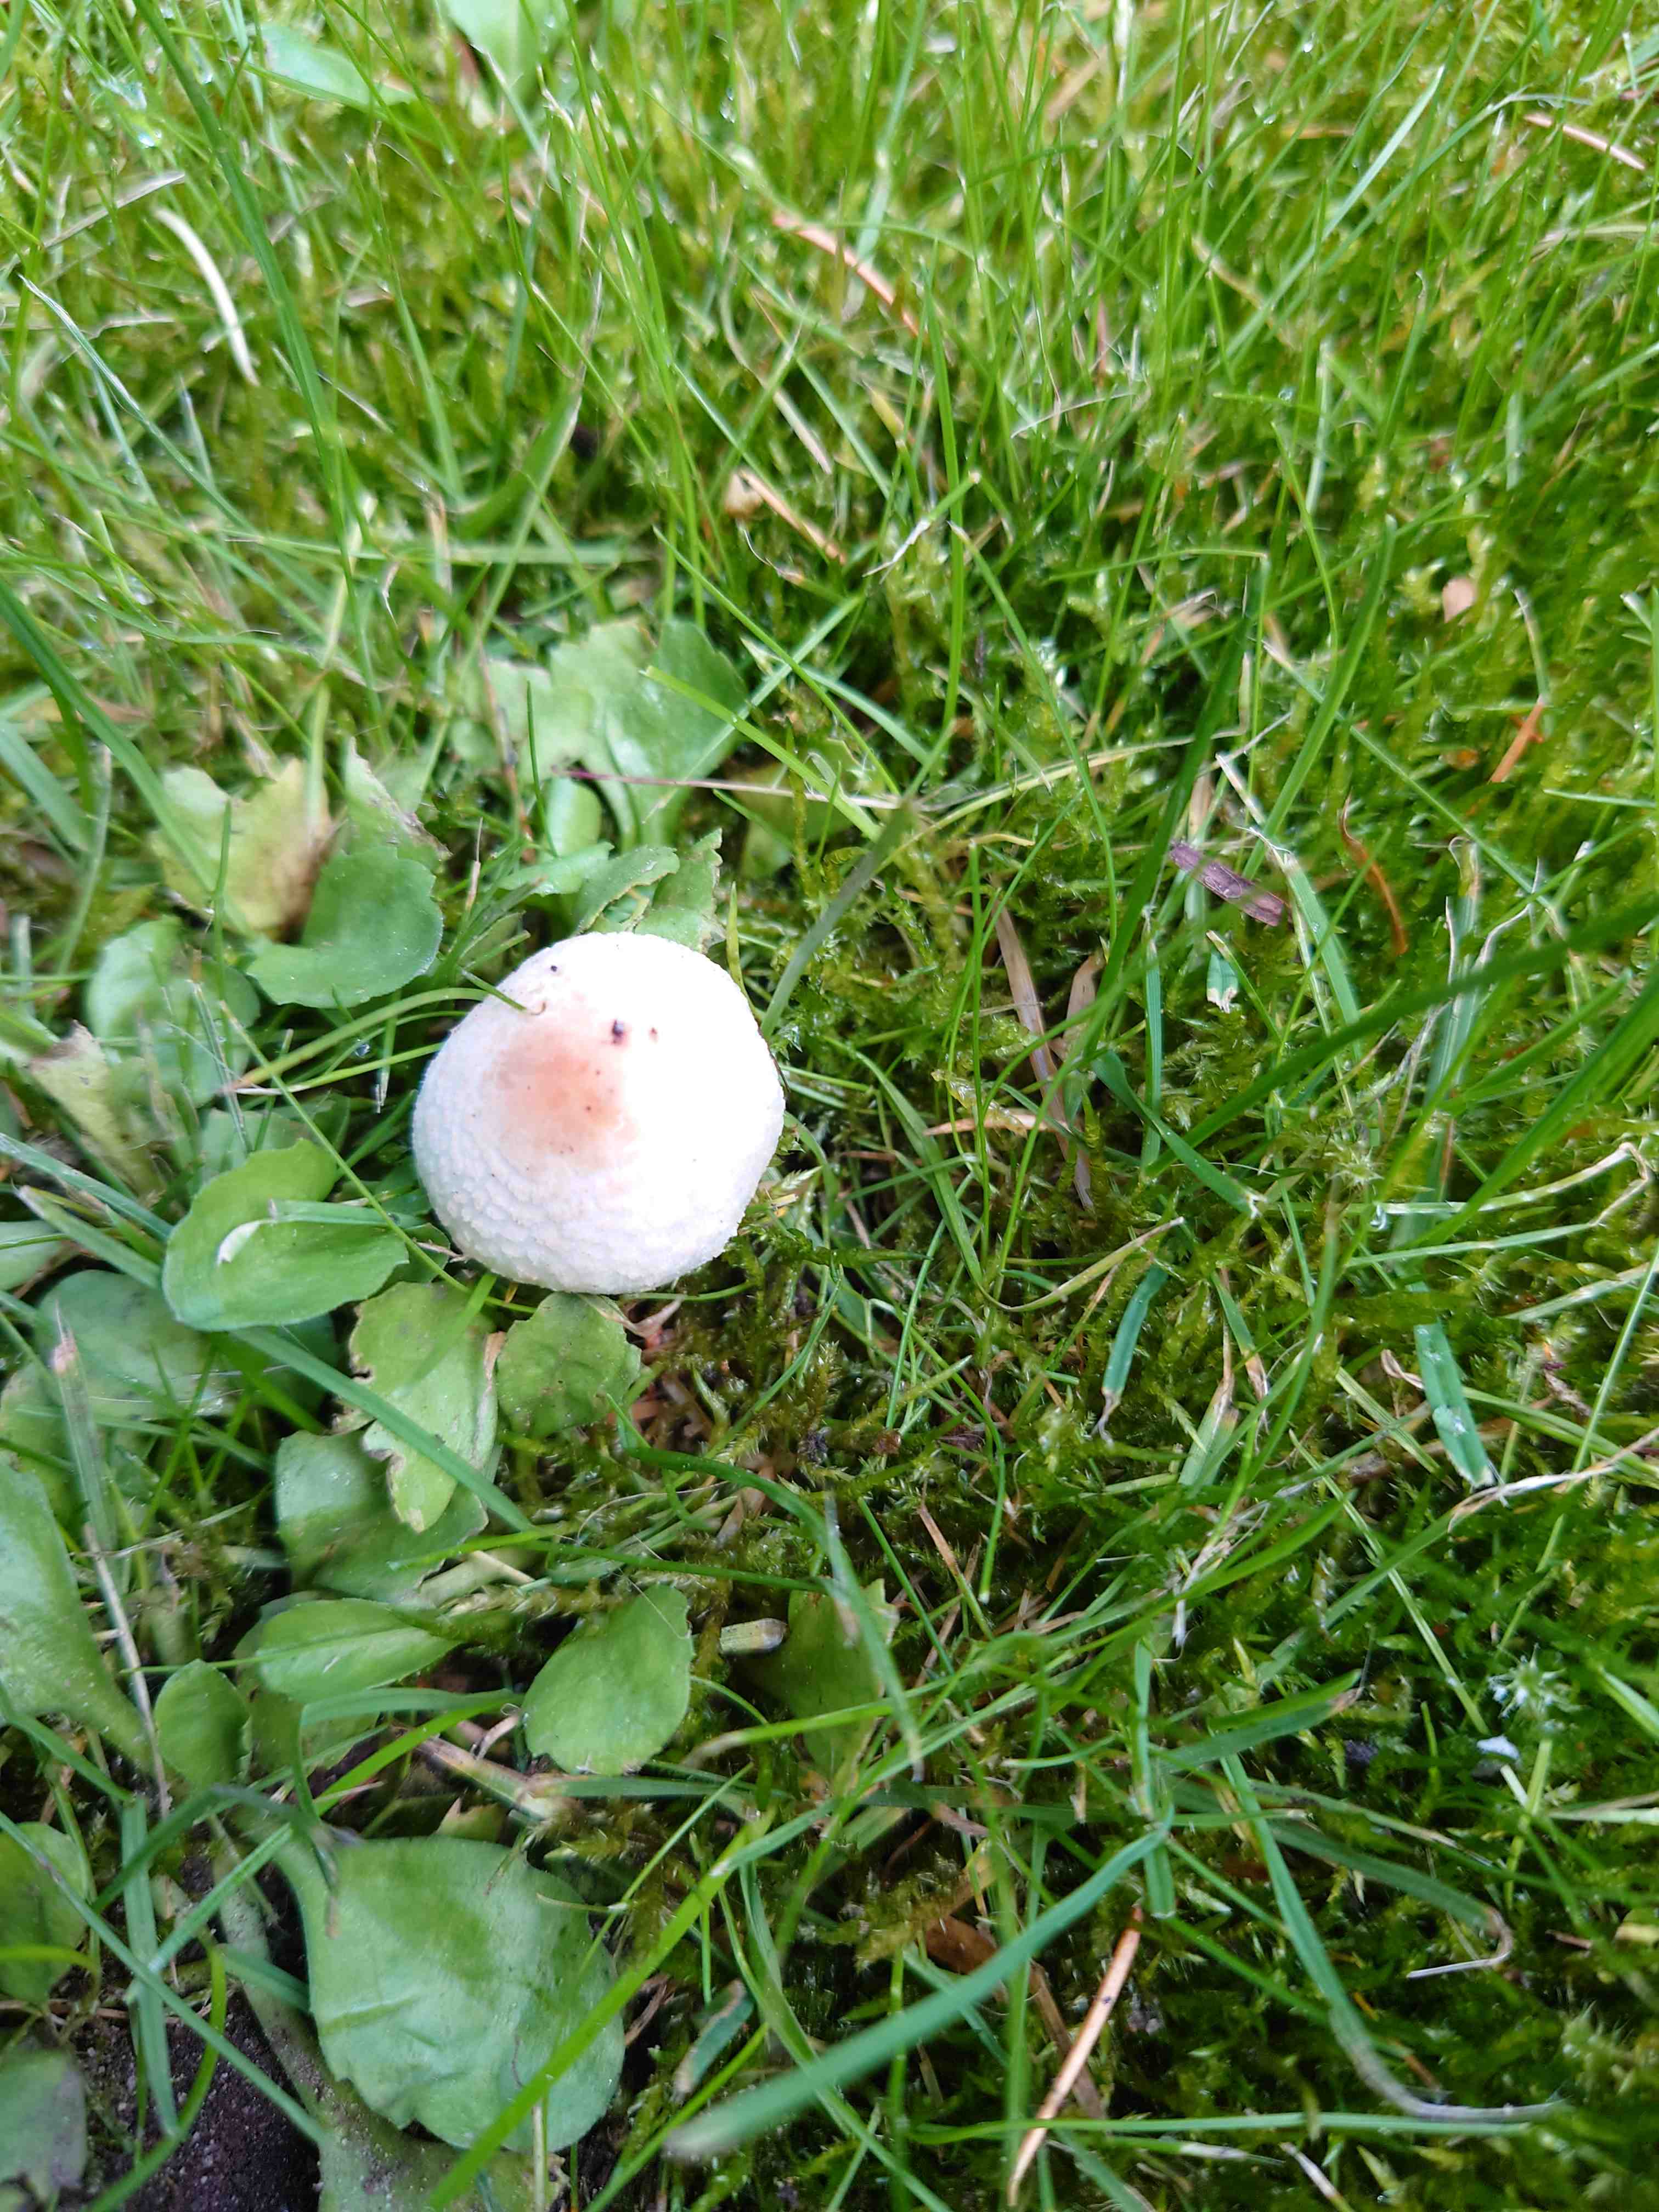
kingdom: Fungi
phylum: Basidiomycota
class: Agaricomycetes
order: Agaricales
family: Agaricaceae
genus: Lepiota
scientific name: Lepiota cristata
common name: stinkende parasolhat
